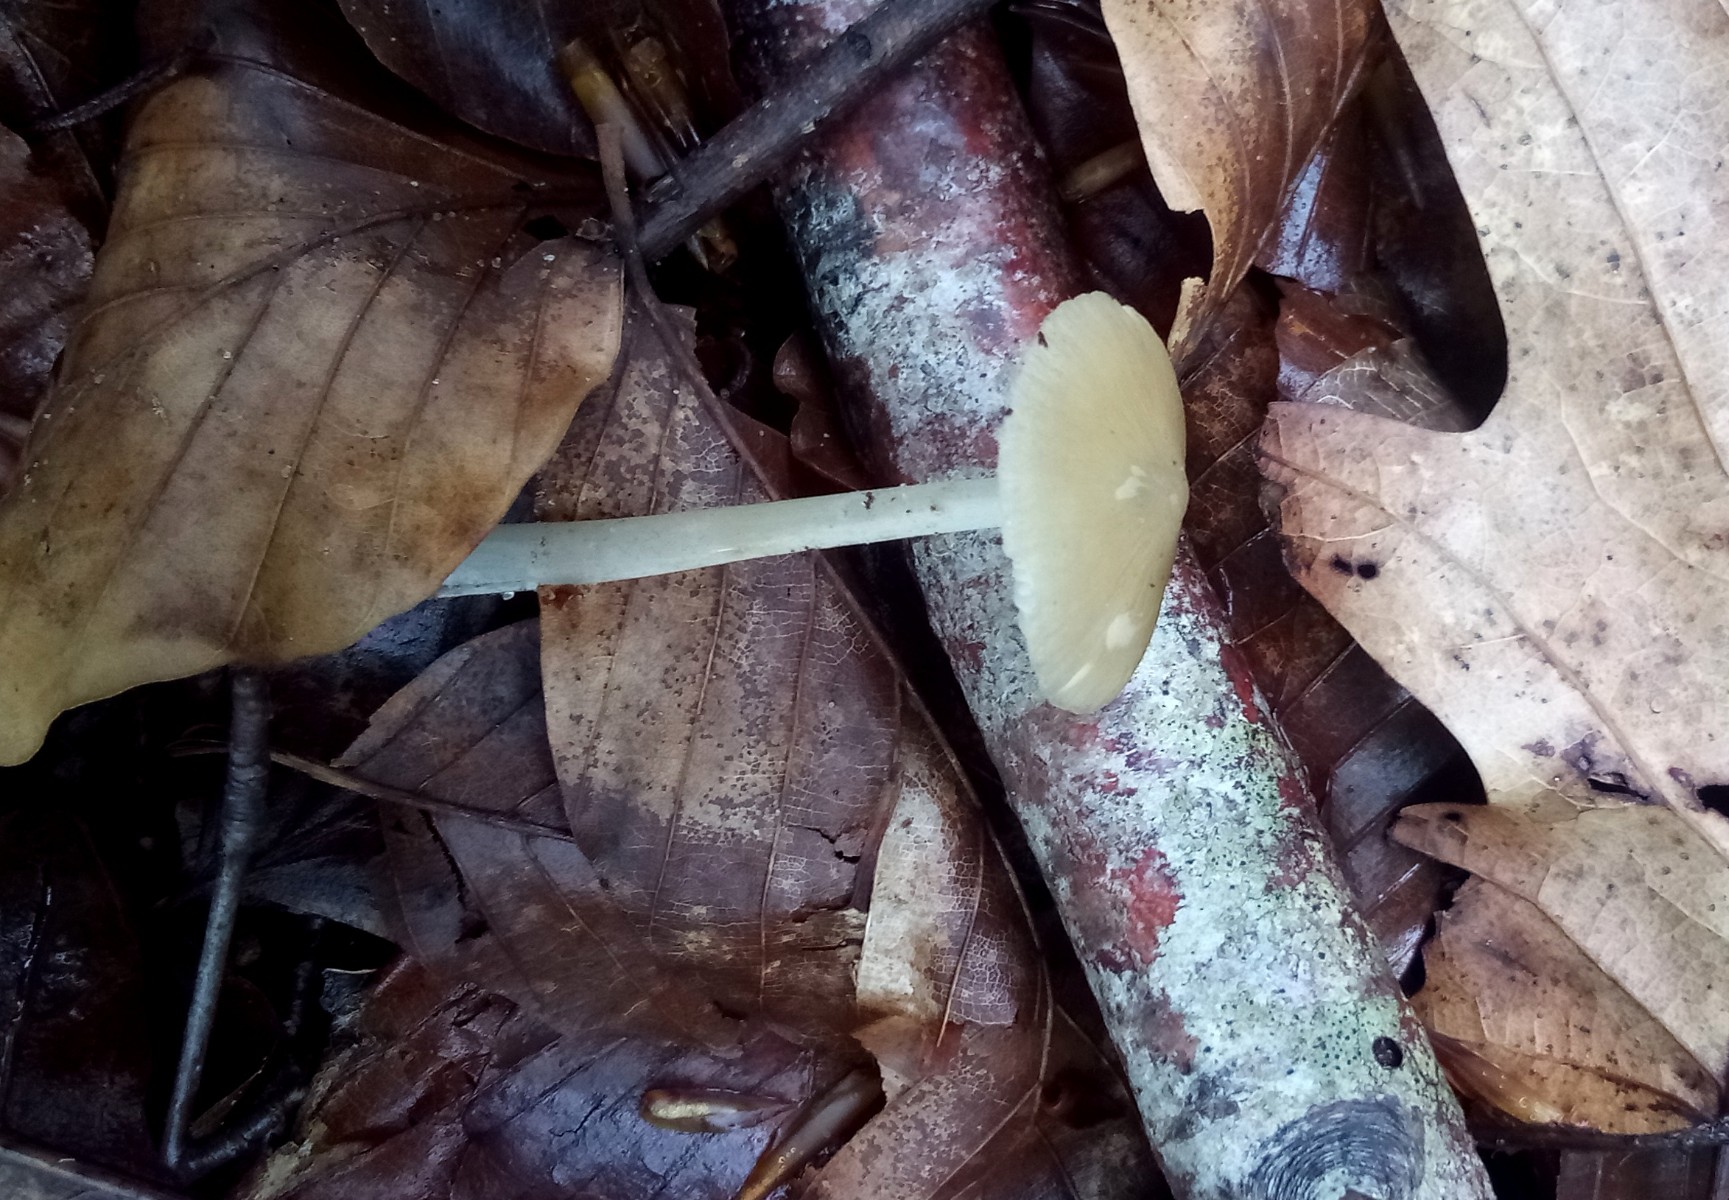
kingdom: Fungi
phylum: Basidiomycota
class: Agaricomycetes
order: Agaricales
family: Porotheleaceae
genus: Hydropodia
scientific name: Hydropodia subalpina
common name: vår-fnugfod
